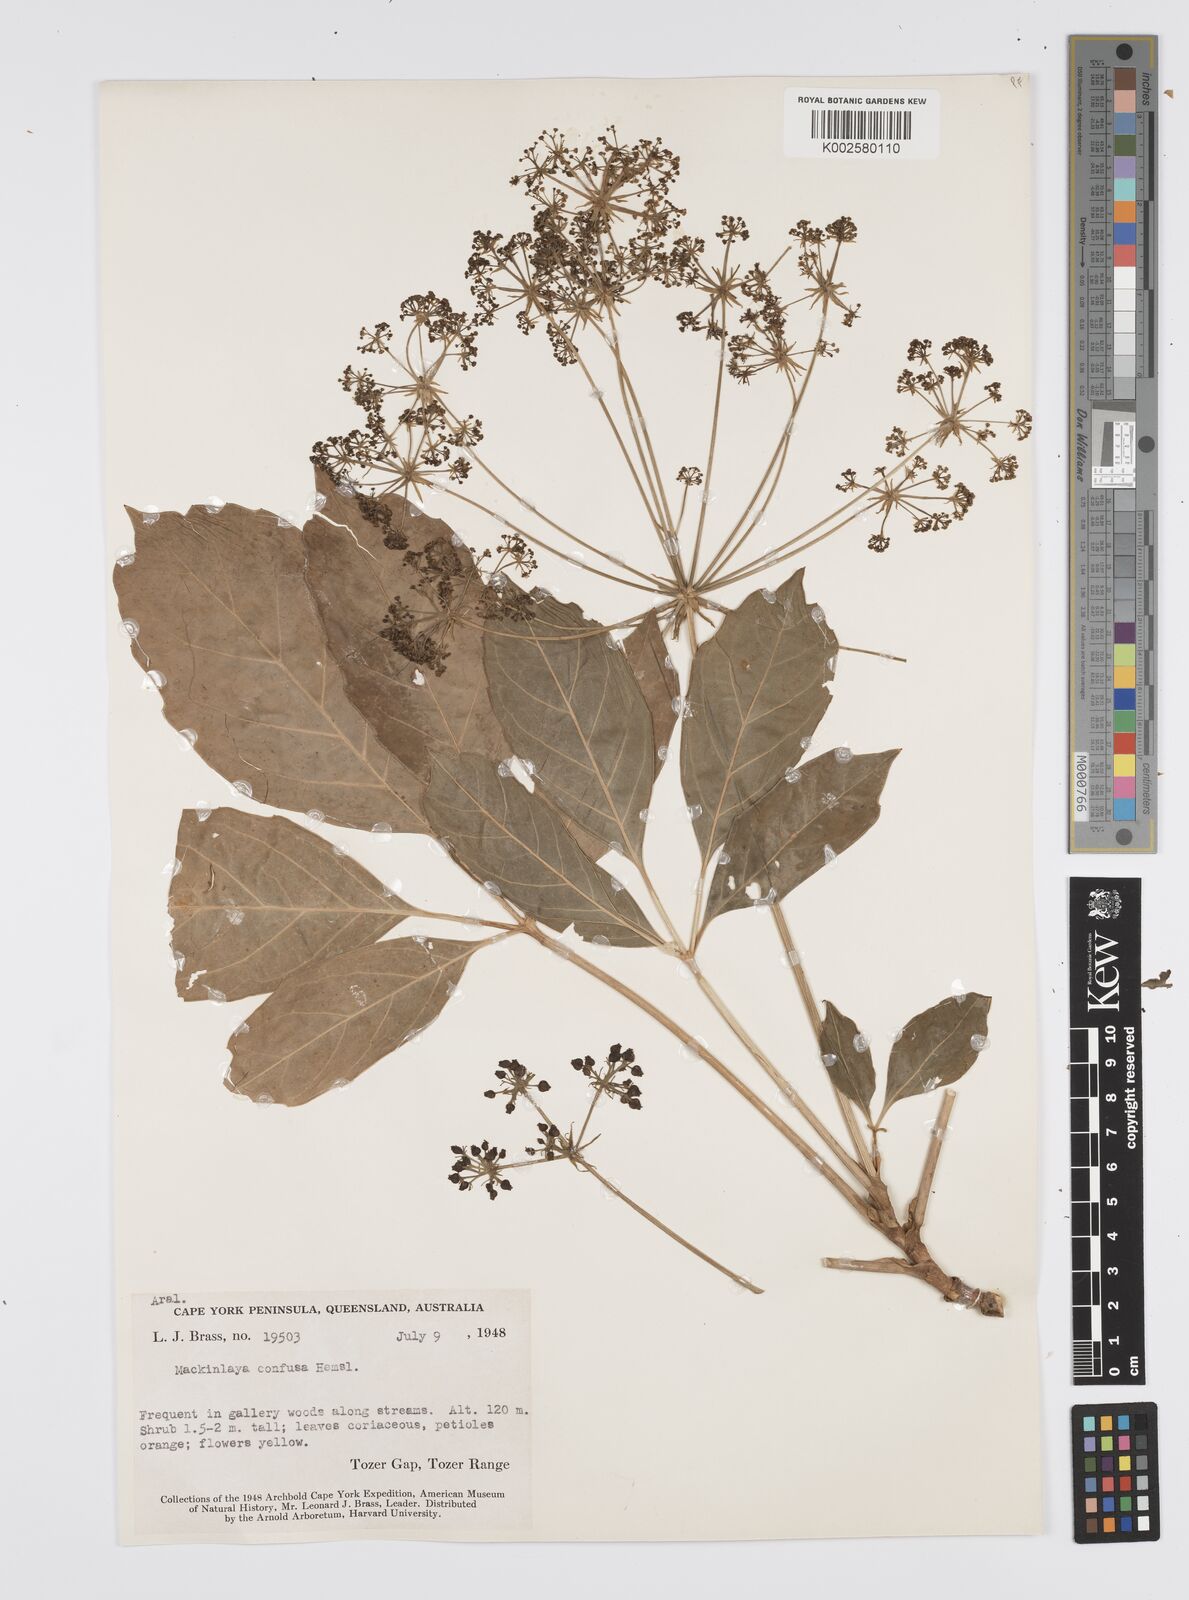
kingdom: Plantae
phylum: Tracheophyta
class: Magnoliopsida
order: Apiales
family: Apiaceae
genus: Mackinlaya
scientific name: Mackinlaya confusa
